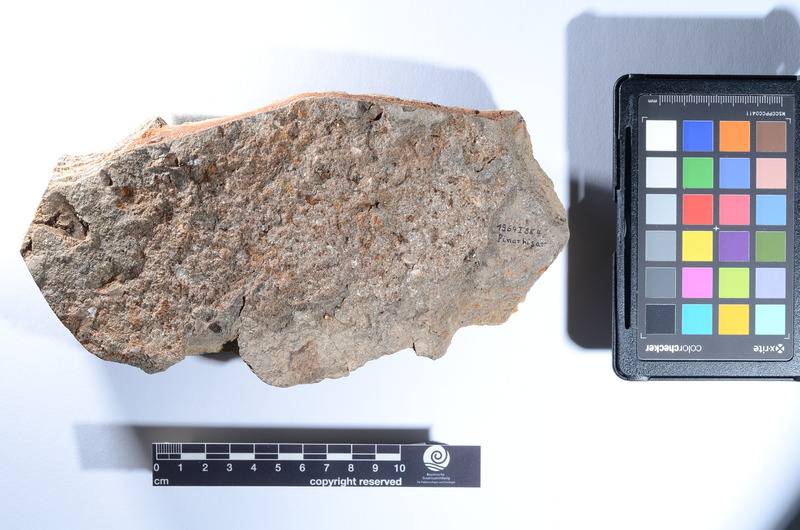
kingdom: Animalia
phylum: Chordata
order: Perciformes
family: Carangidae
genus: Caranx
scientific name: Caranx
